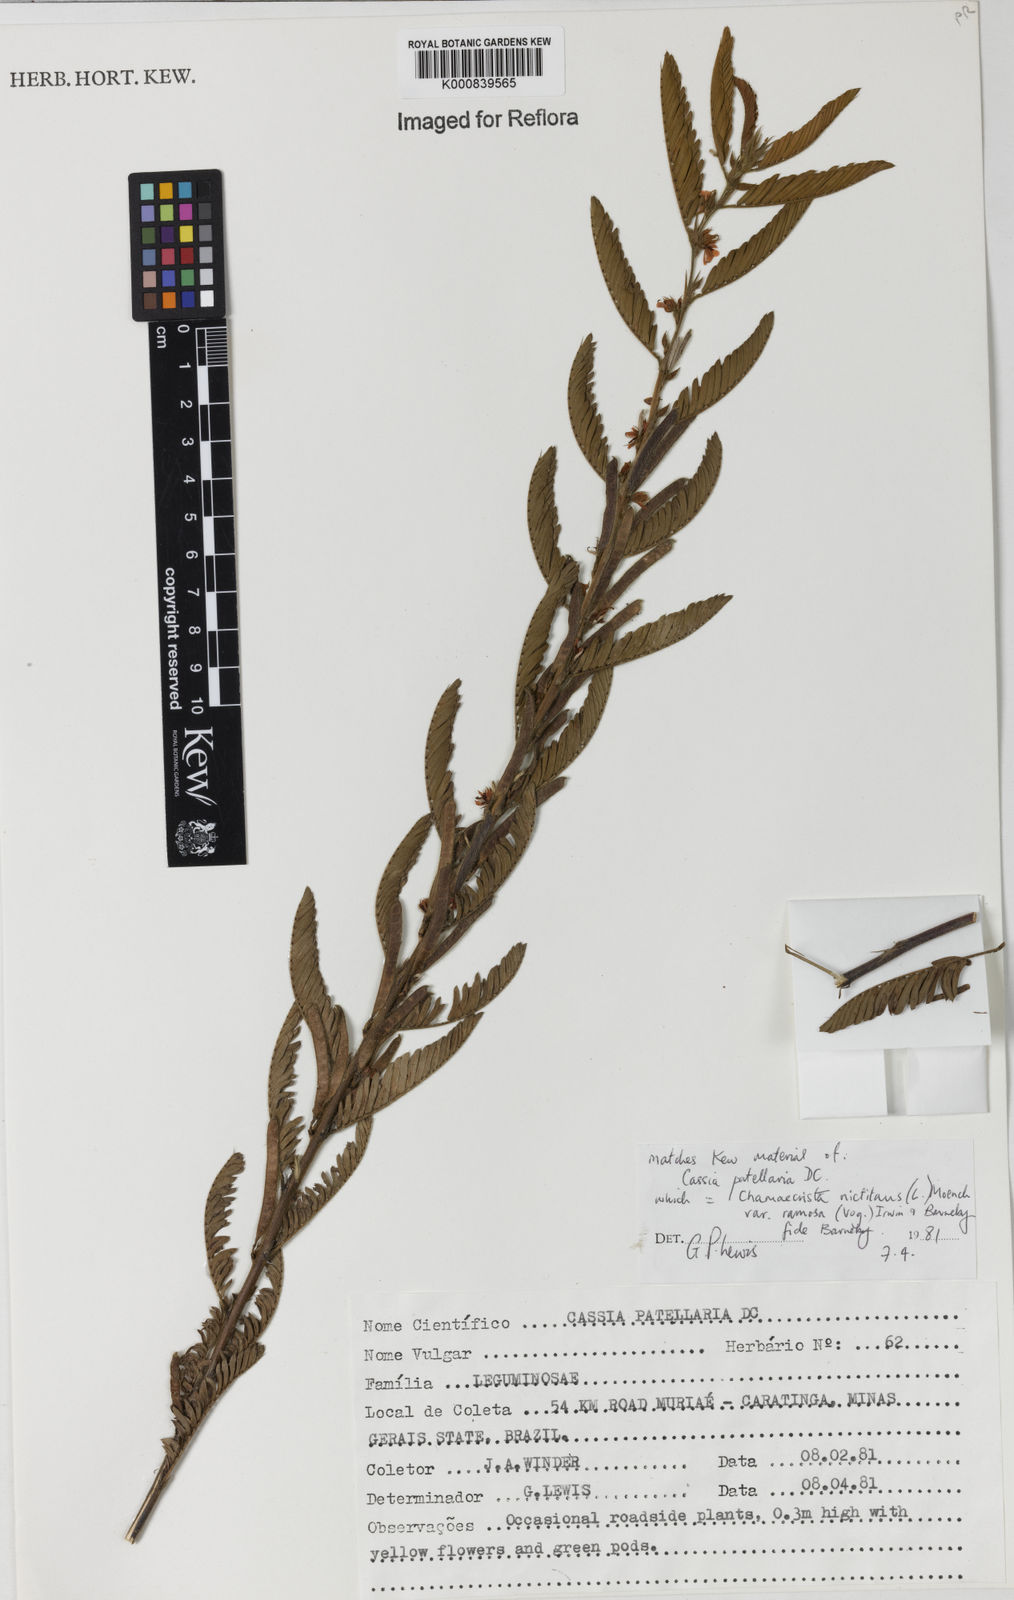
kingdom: Plantae
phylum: Tracheophyta
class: Magnoliopsida
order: Fabales
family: Fabaceae
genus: Chamaecrista
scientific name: Chamaecrista nictitans
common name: Sensitive cassia
